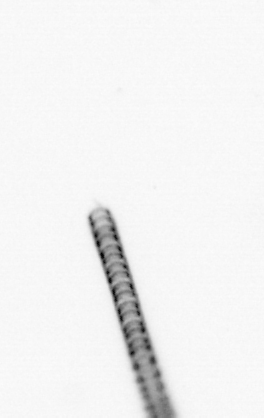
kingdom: Chromista
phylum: Ochrophyta
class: Bacillariophyceae
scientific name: Bacillariophyceae
